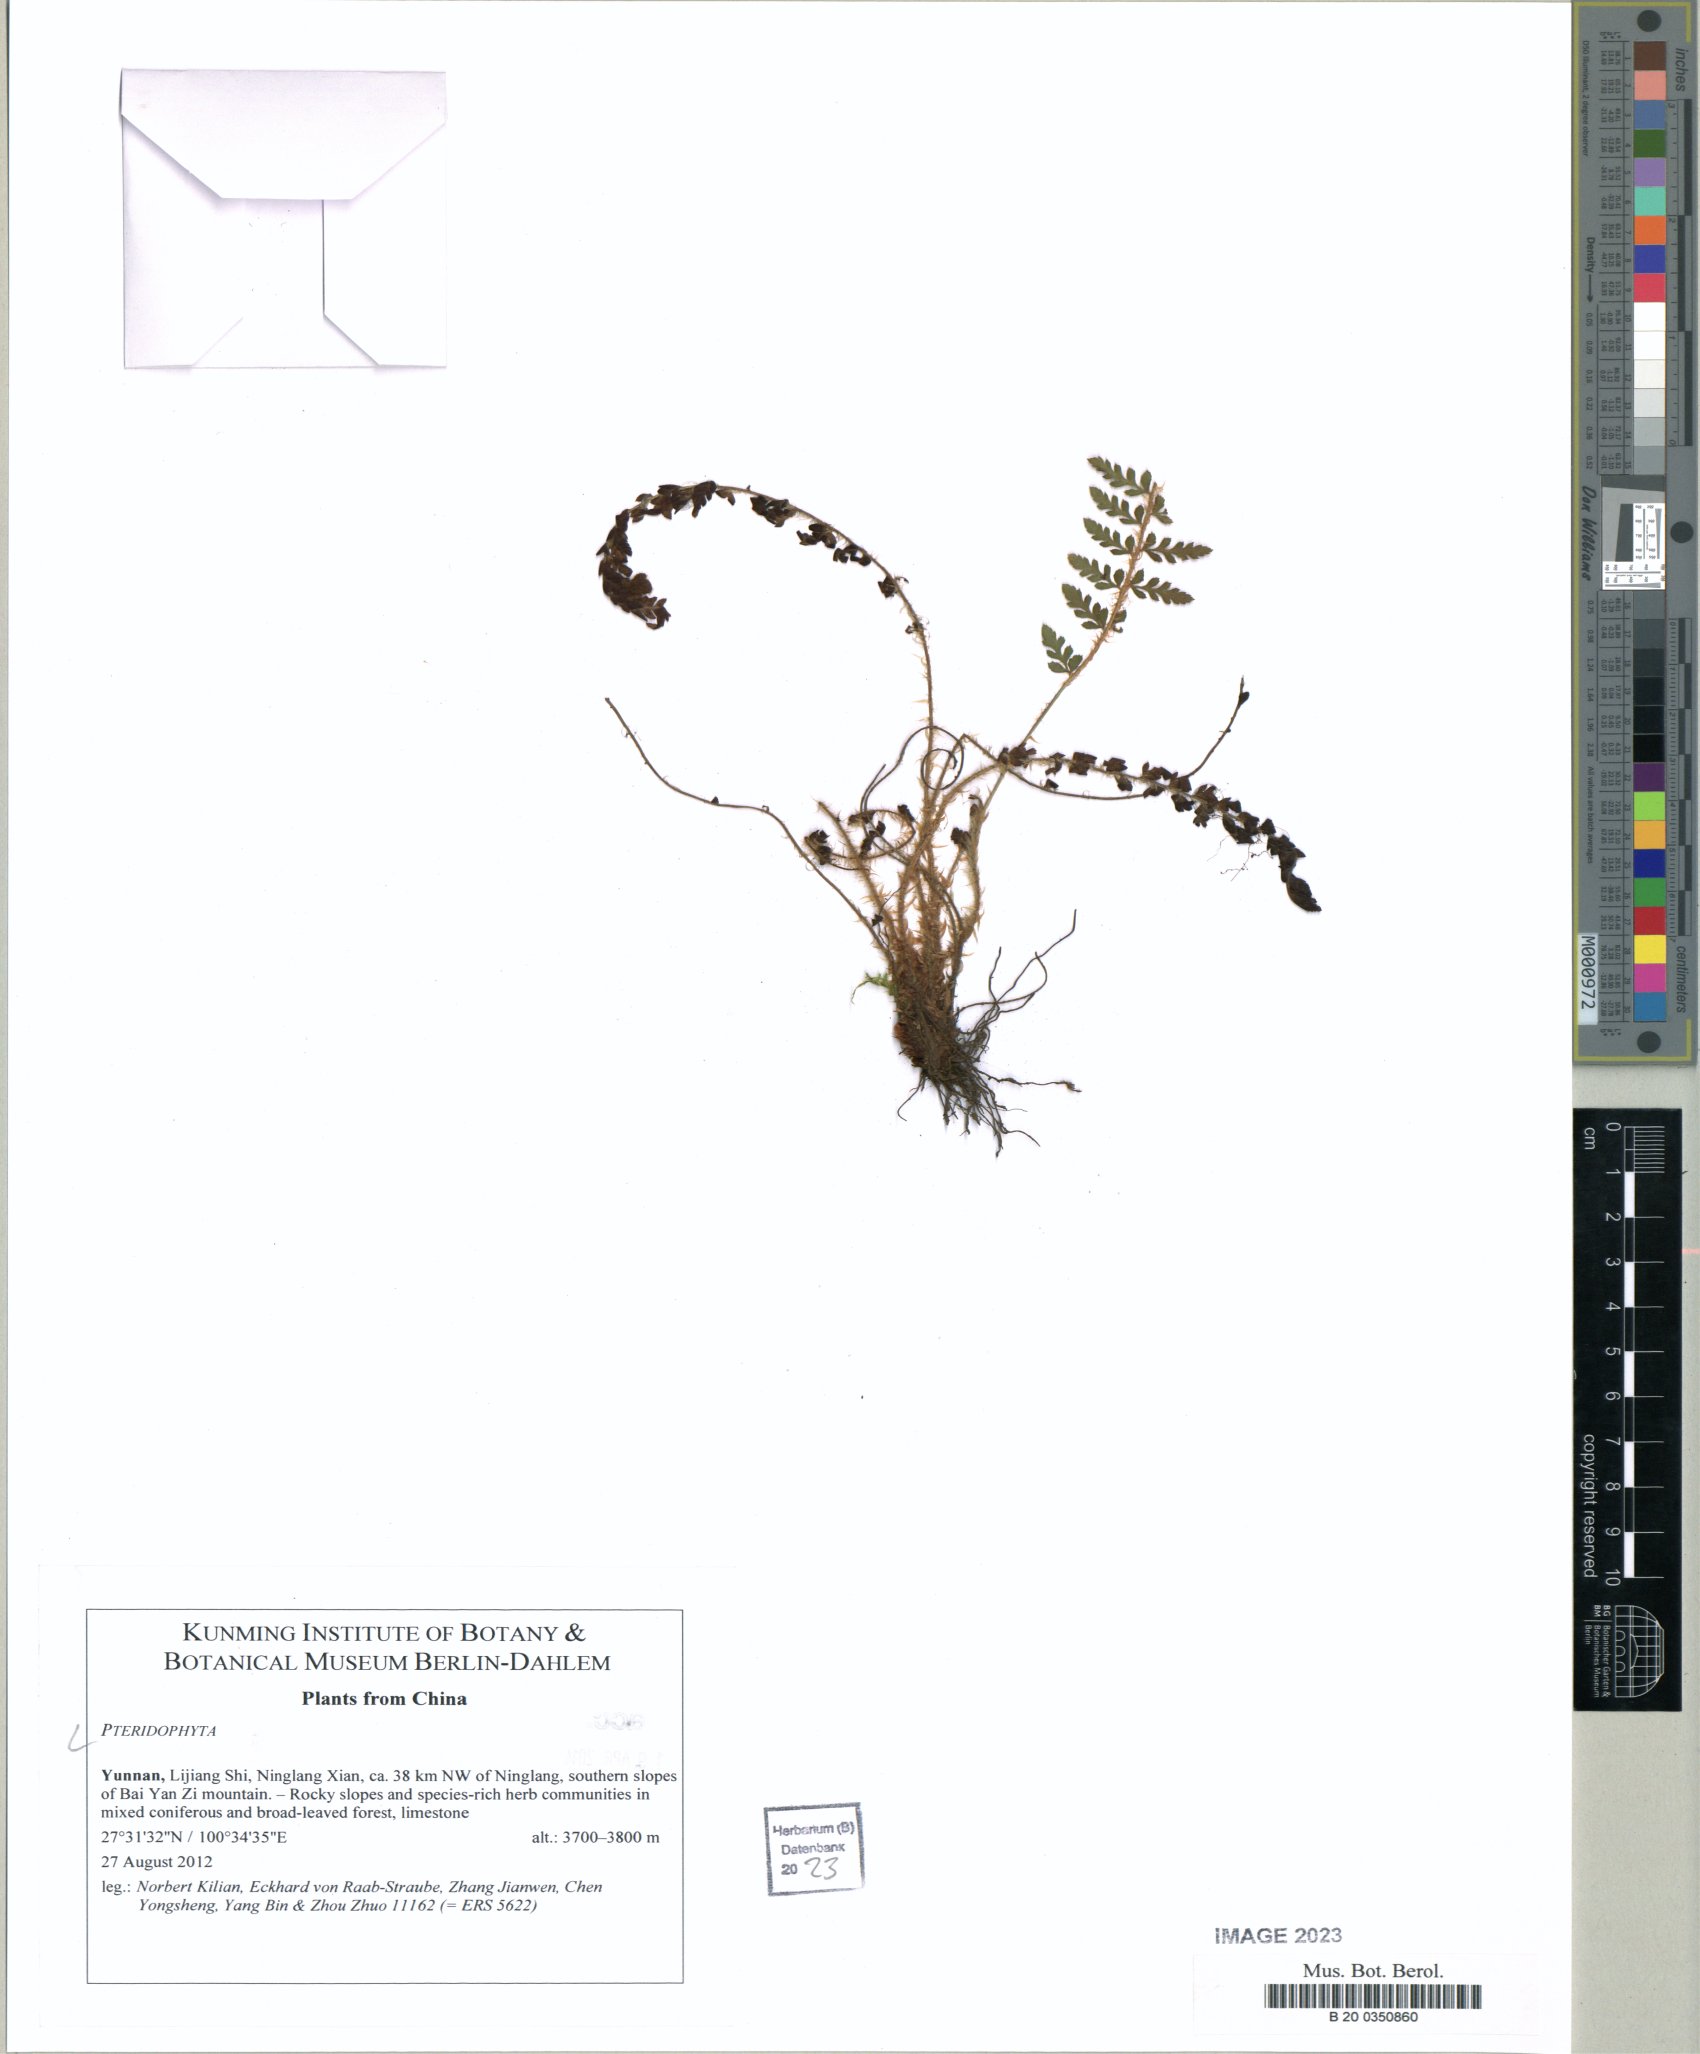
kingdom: Plantae
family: Pteridophyta
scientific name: Pteridophyta
